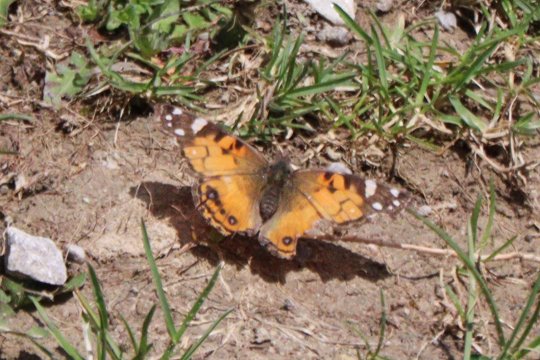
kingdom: Animalia
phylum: Arthropoda
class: Insecta
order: Lepidoptera
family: Nymphalidae
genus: Vanessa
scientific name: Vanessa virginiensis
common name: American Lady
